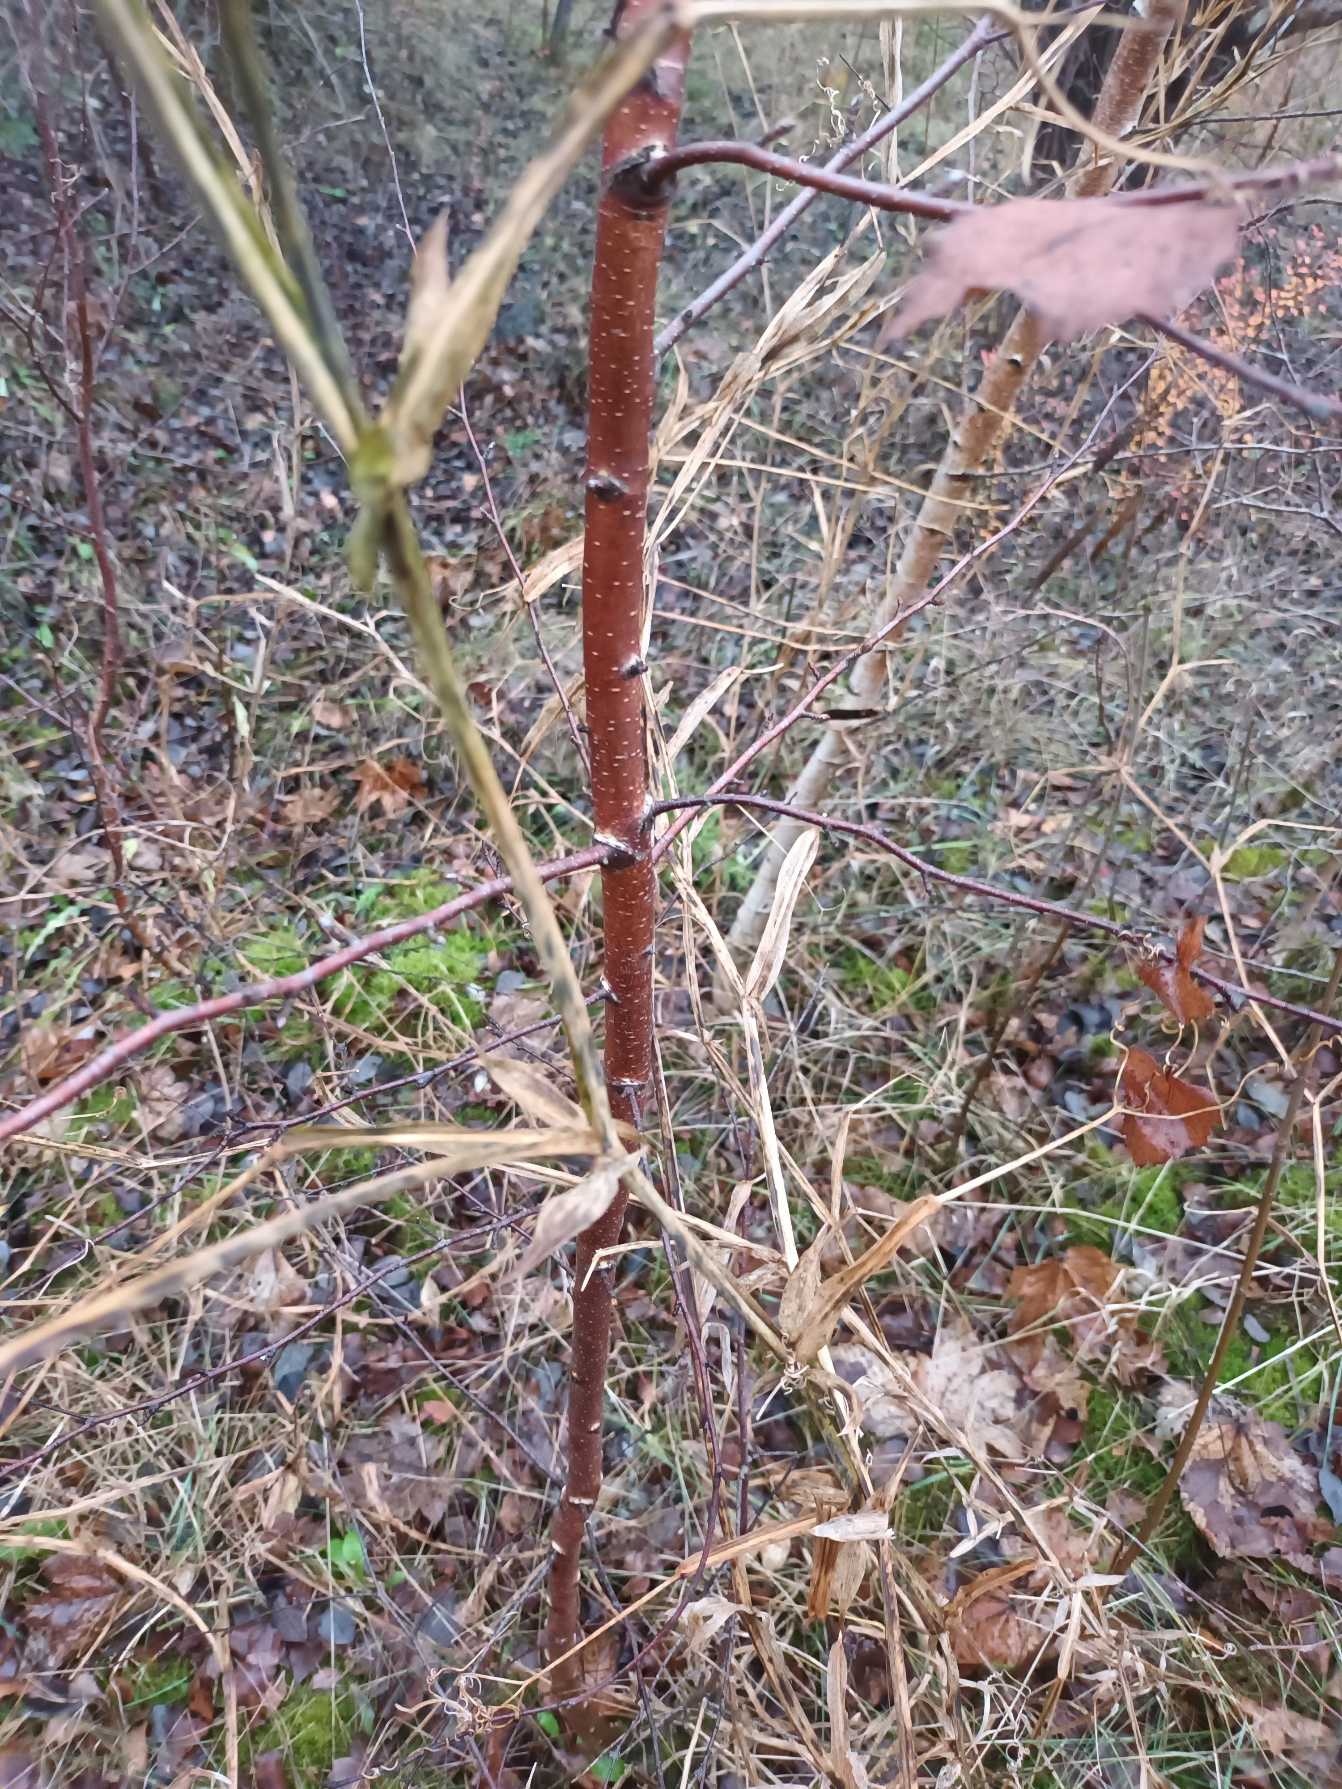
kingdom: Plantae
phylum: Tracheophyta
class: Magnoliopsida
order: Fabales
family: Fabaceae
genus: Lathyrus
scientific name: Lathyrus latifolius
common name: Flerårig ærteblomst
